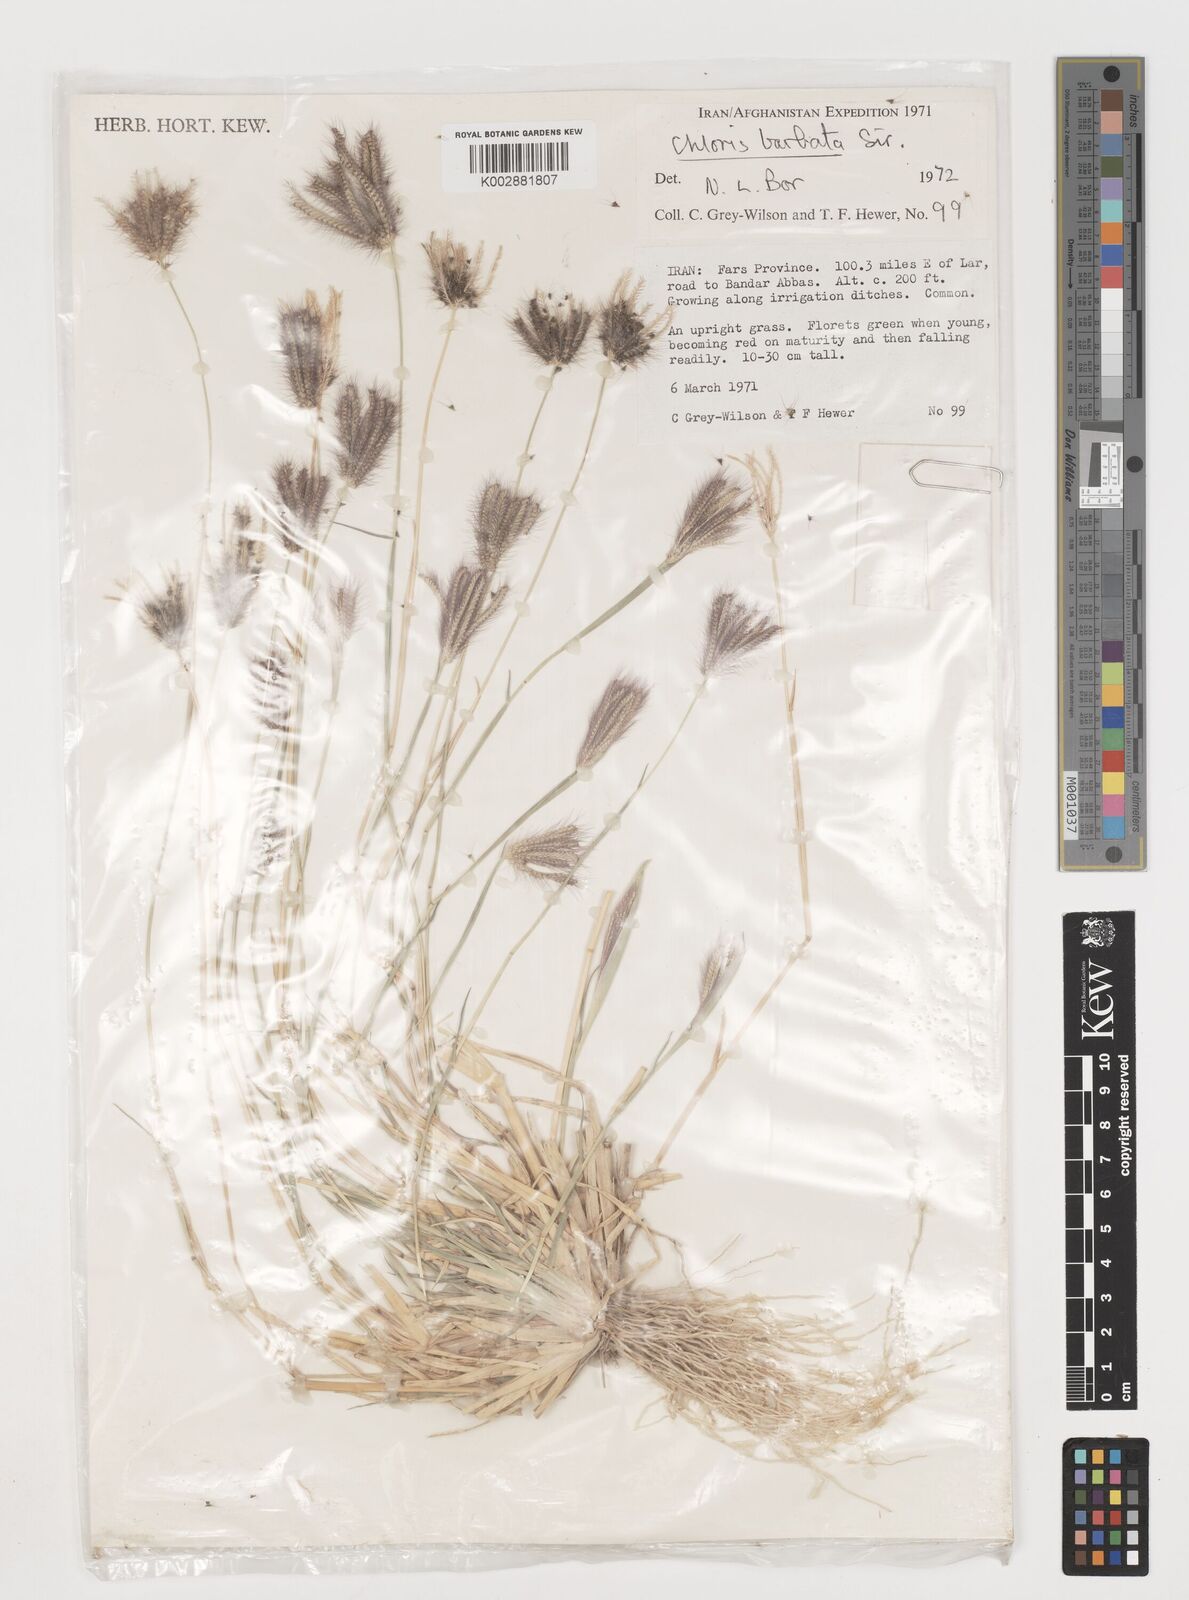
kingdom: Plantae
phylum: Tracheophyta
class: Liliopsida
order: Poales
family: Poaceae
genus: Chloris
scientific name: Chloris barbata
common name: Swollen fingergrass
